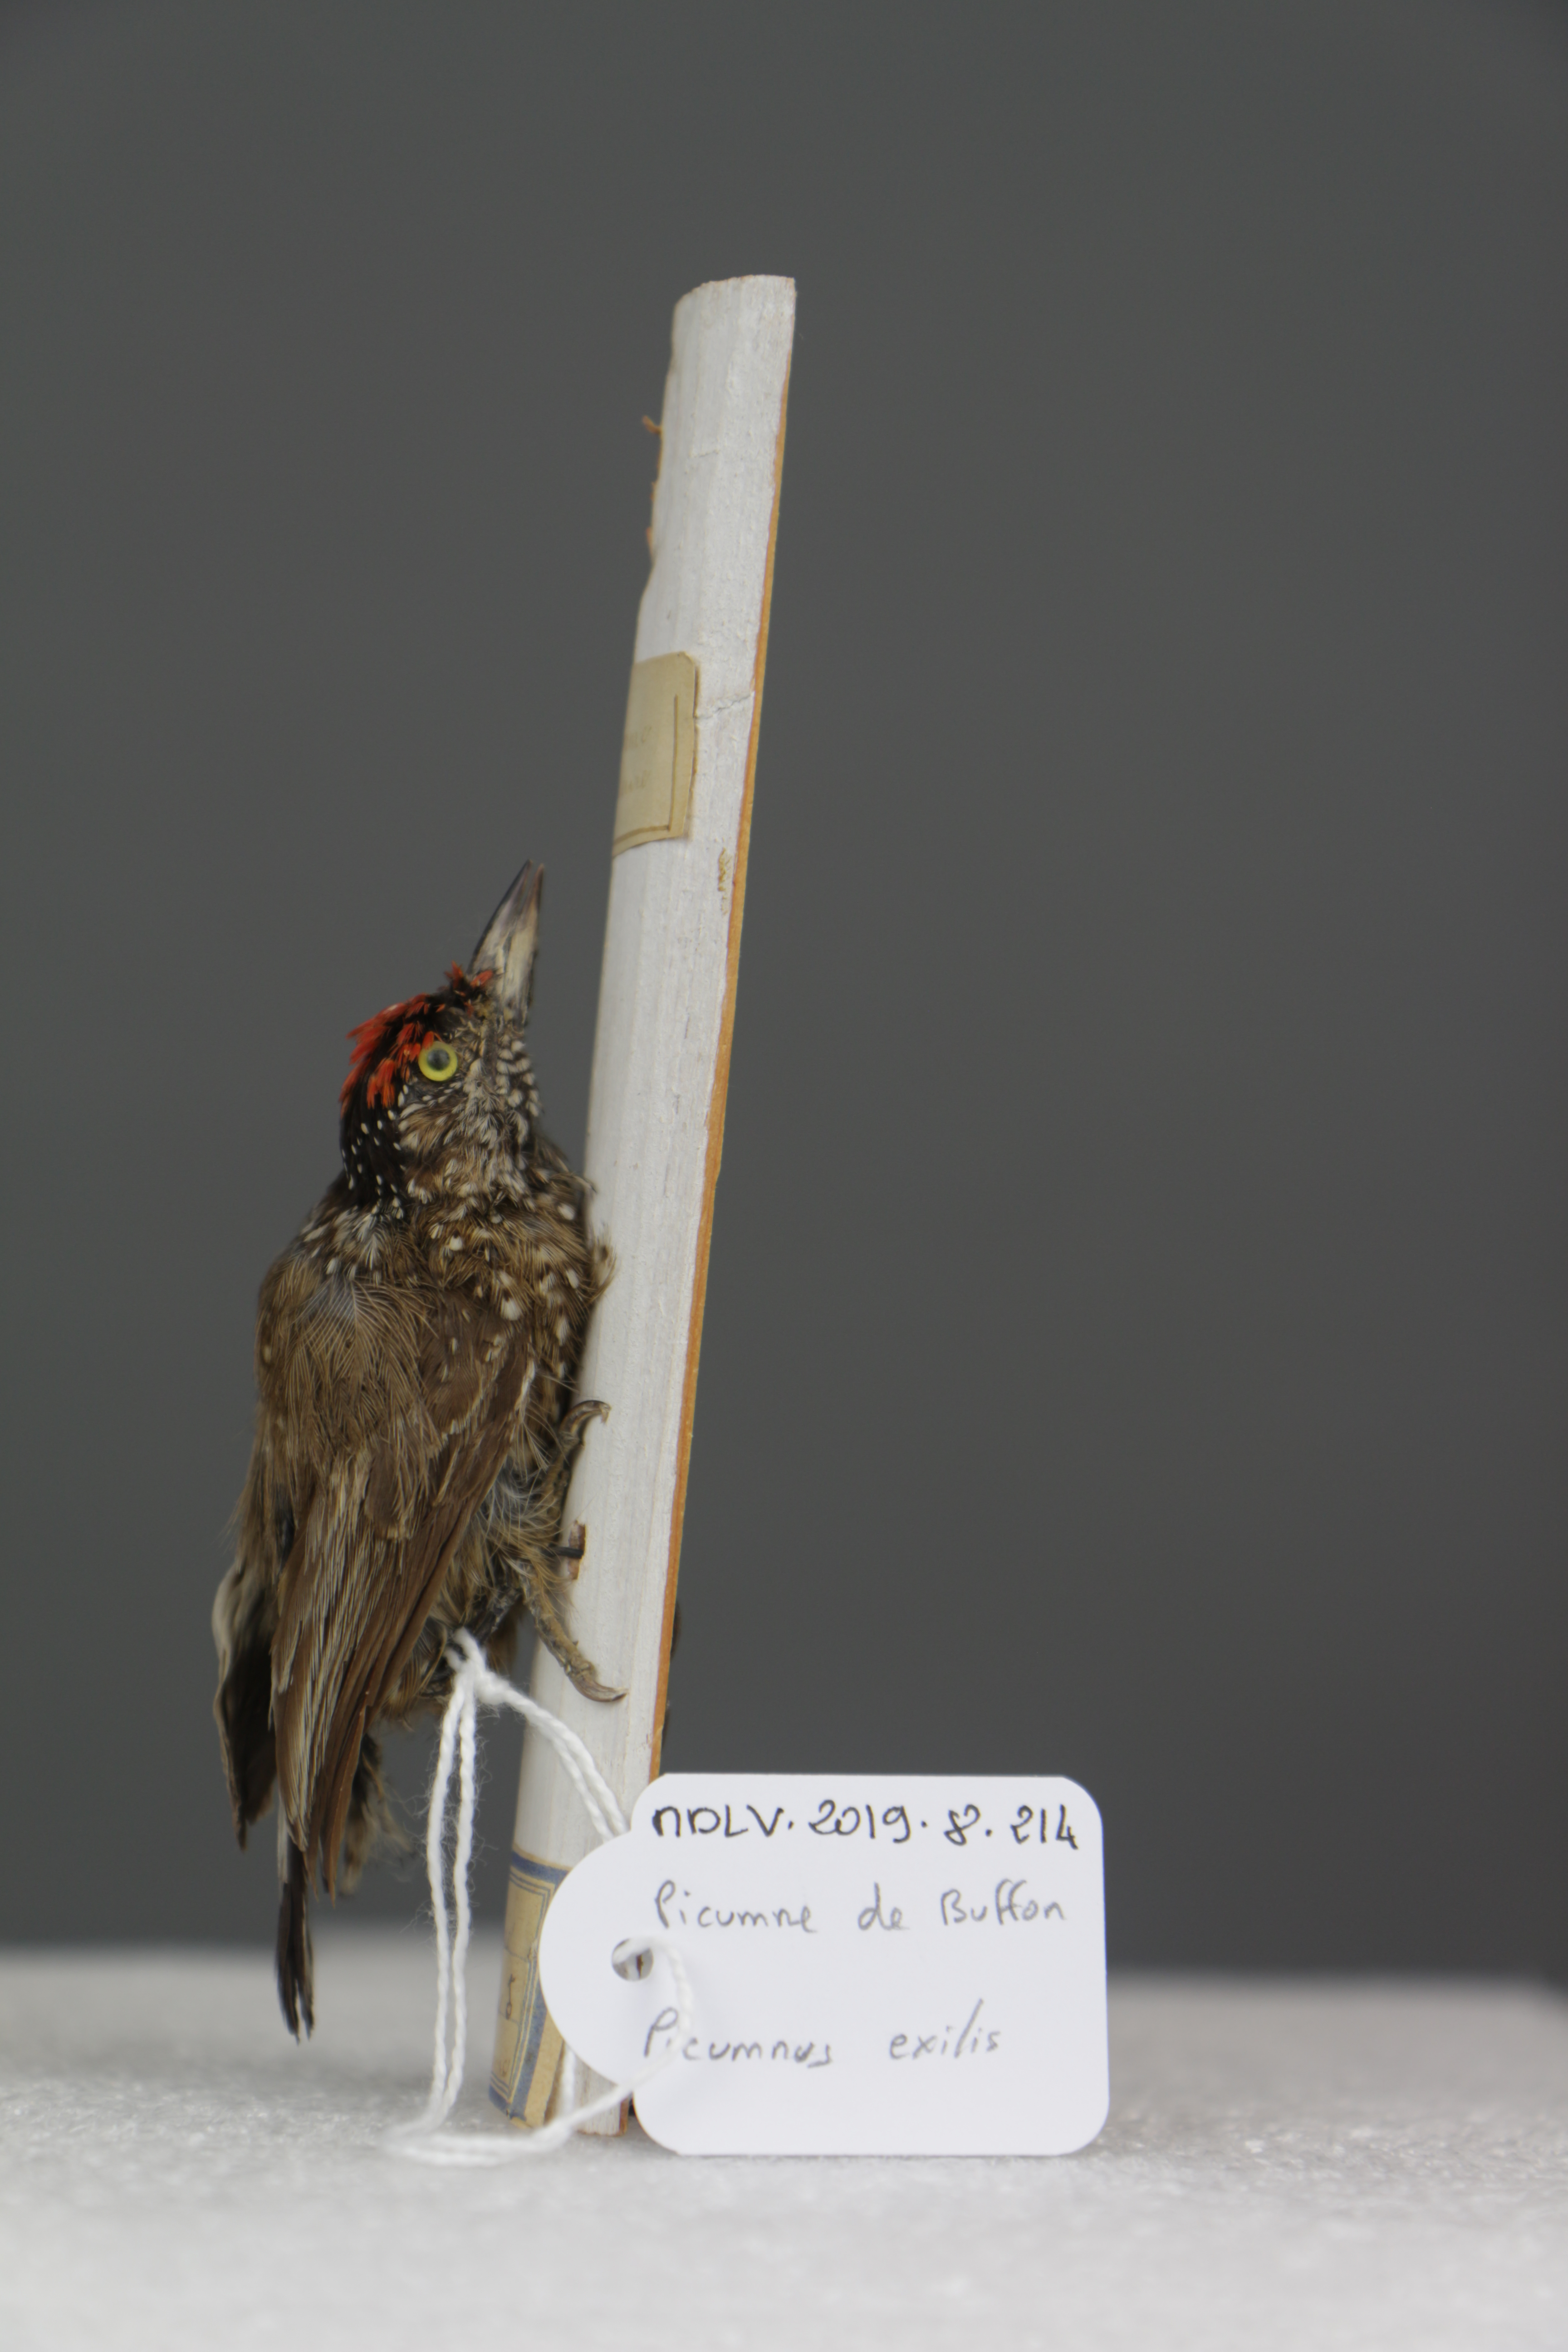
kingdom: Animalia
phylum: Chordata
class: Aves
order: Piciformes
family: Picidae
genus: Picumnus
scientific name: Picumnus exilis
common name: Golden-spangled piculet
